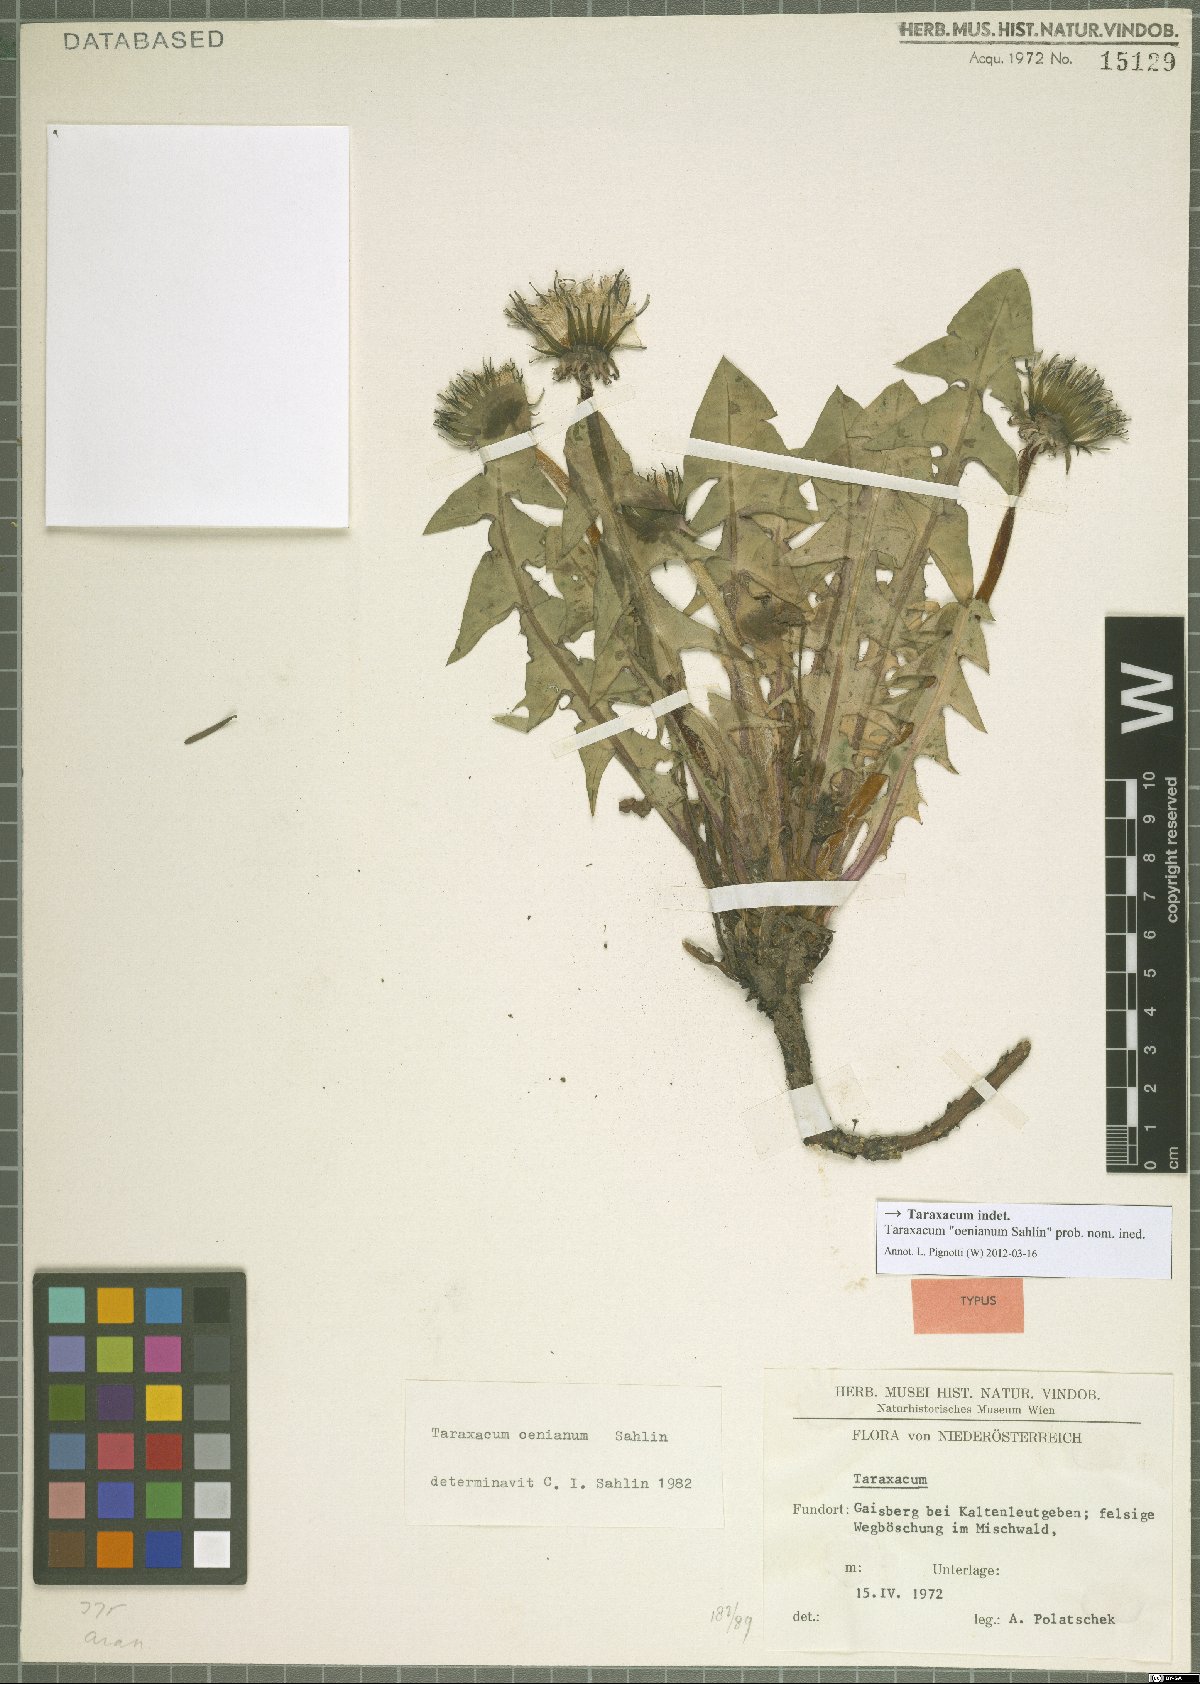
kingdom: Plantae
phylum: Tracheophyta
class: Magnoliopsida
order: Asterales
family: Asteraceae
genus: Taraxacum
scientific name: Taraxacum
